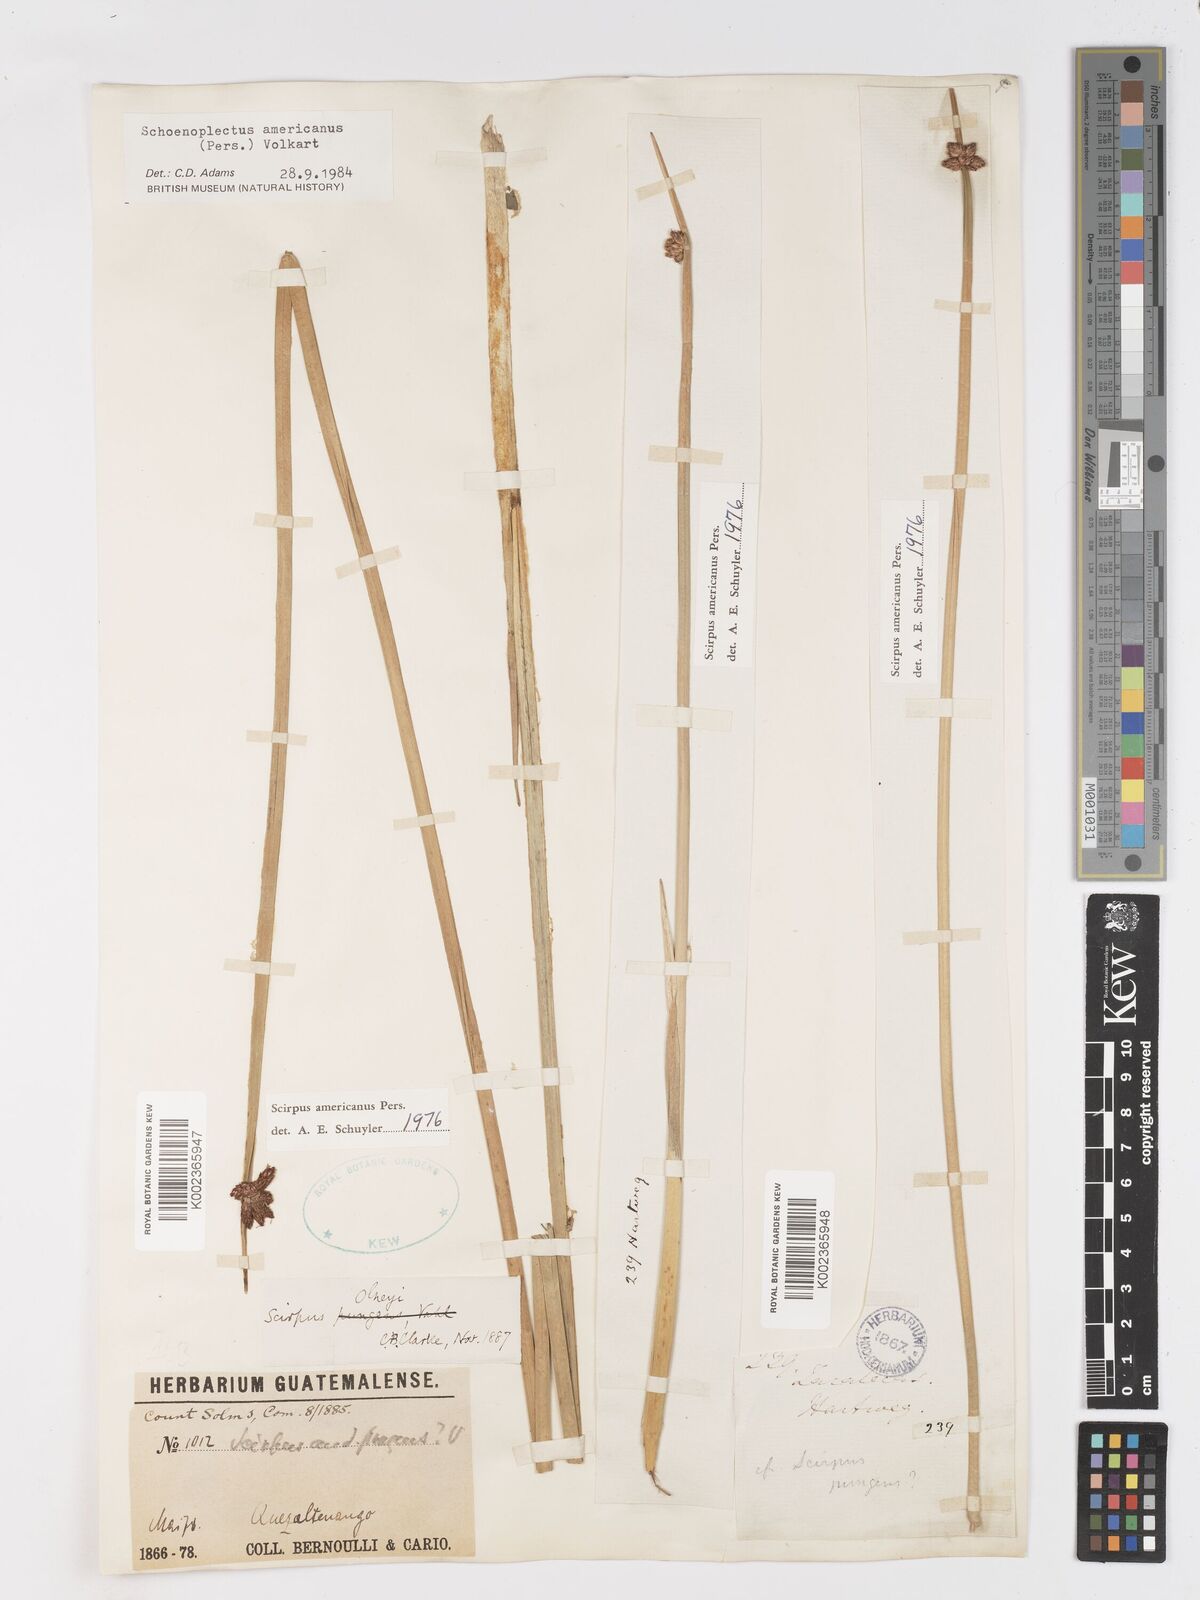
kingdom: Plantae
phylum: Tracheophyta
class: Liliopsida
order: Poales
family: Cyperaceae
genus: Schoenoplectus
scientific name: Schoenoplectus americanus
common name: American three-square bulrush
